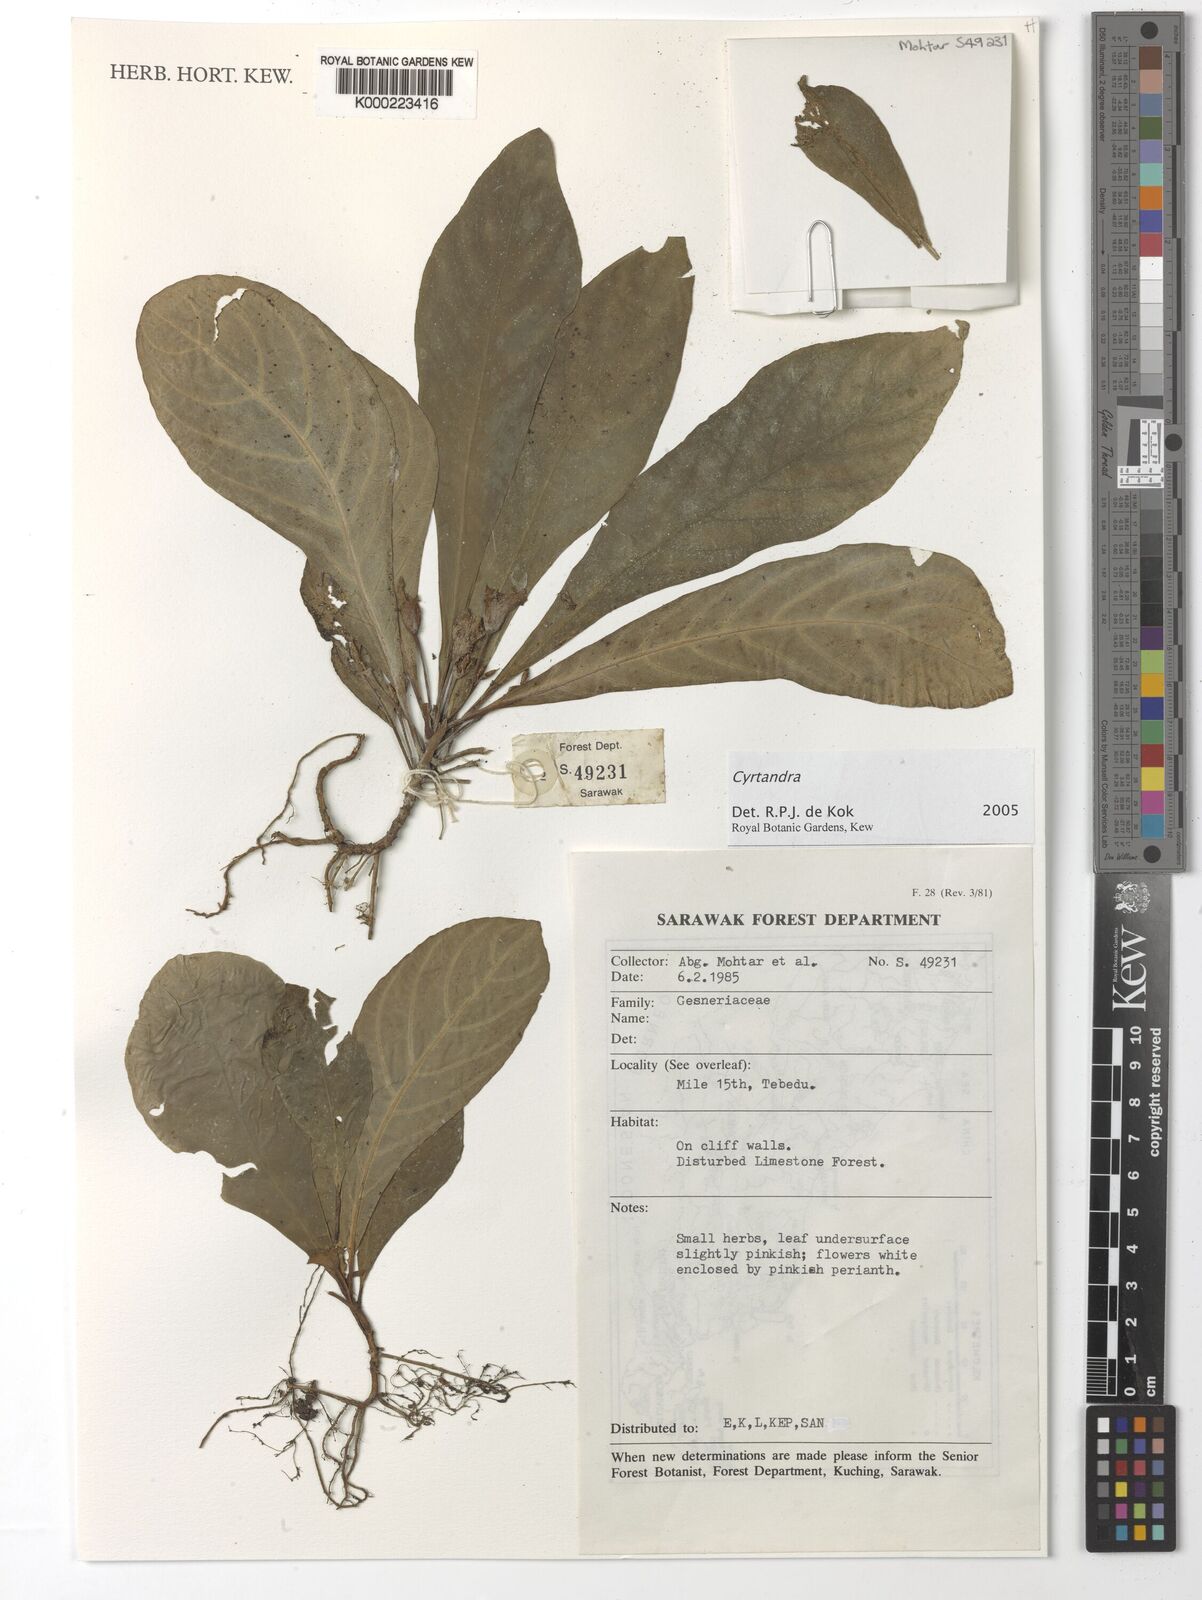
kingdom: Plantae
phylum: Tracheophyta
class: Magnoliopsida
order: Lamiales
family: Gesneriaceae
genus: Cyrtandra
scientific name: Cyrtandra
